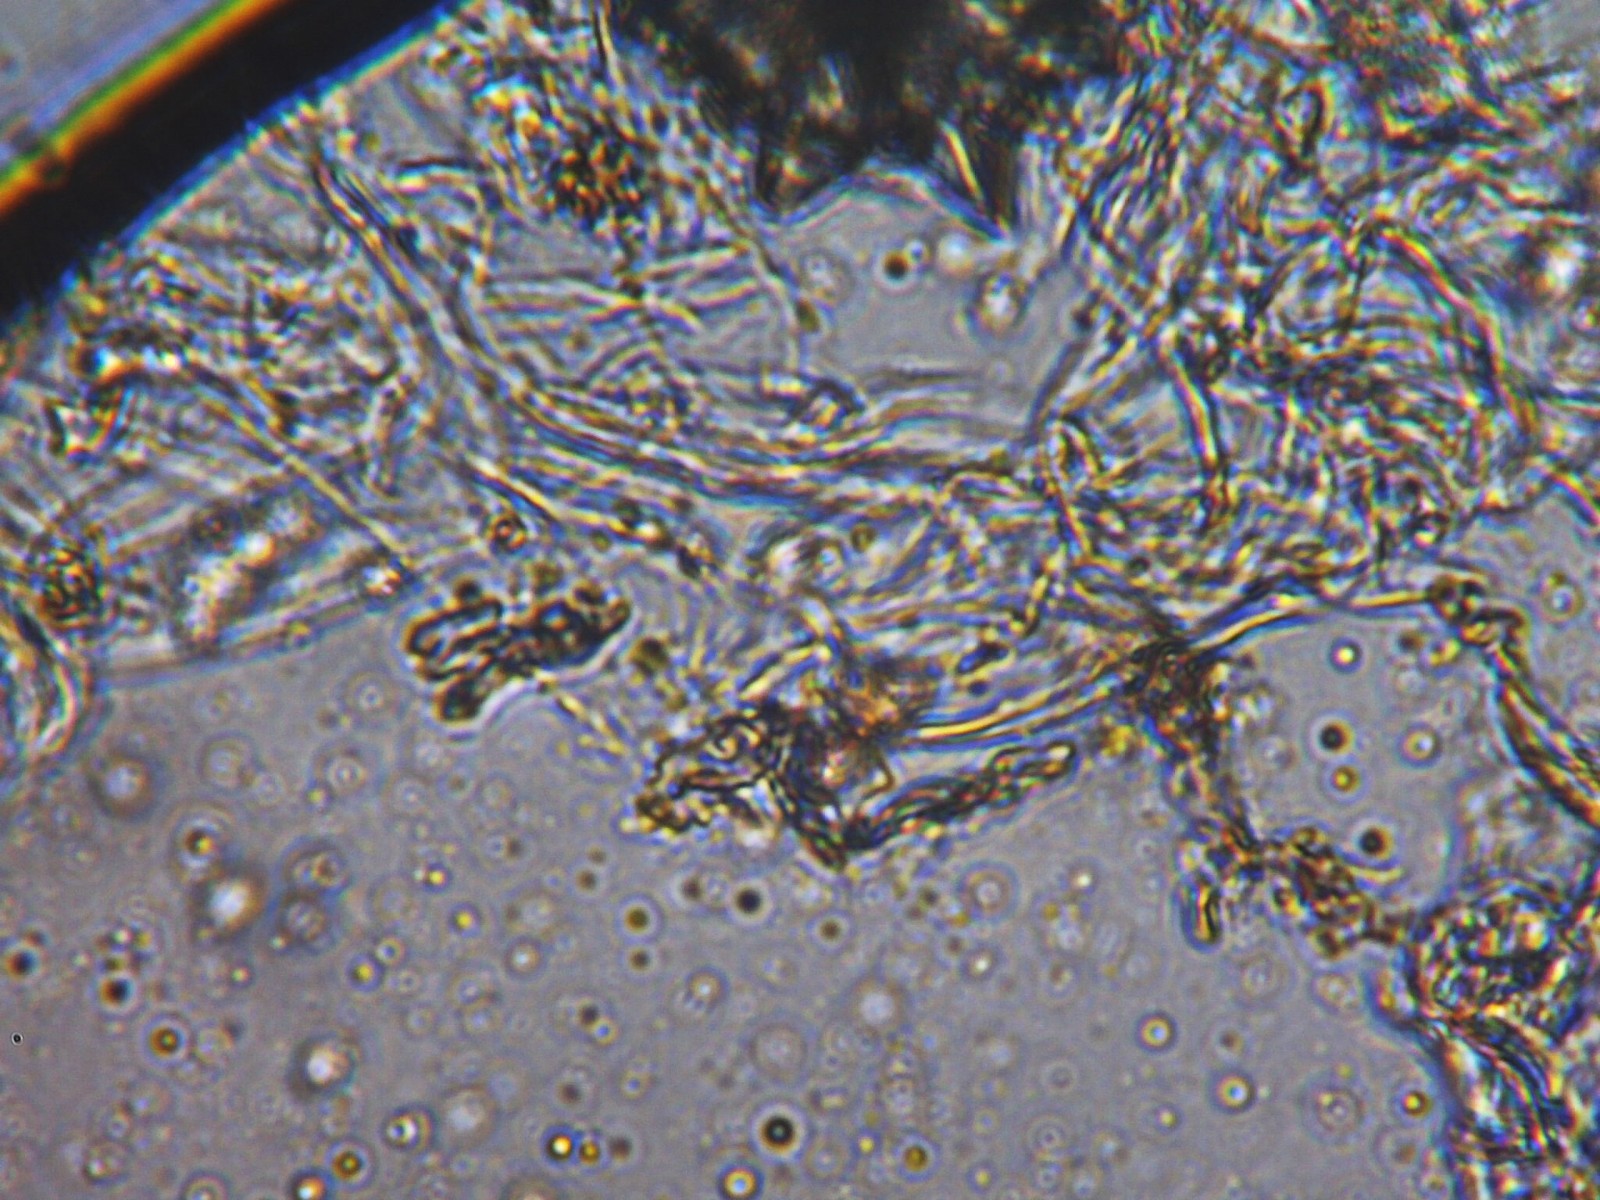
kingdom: Fungi
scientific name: Fungi
